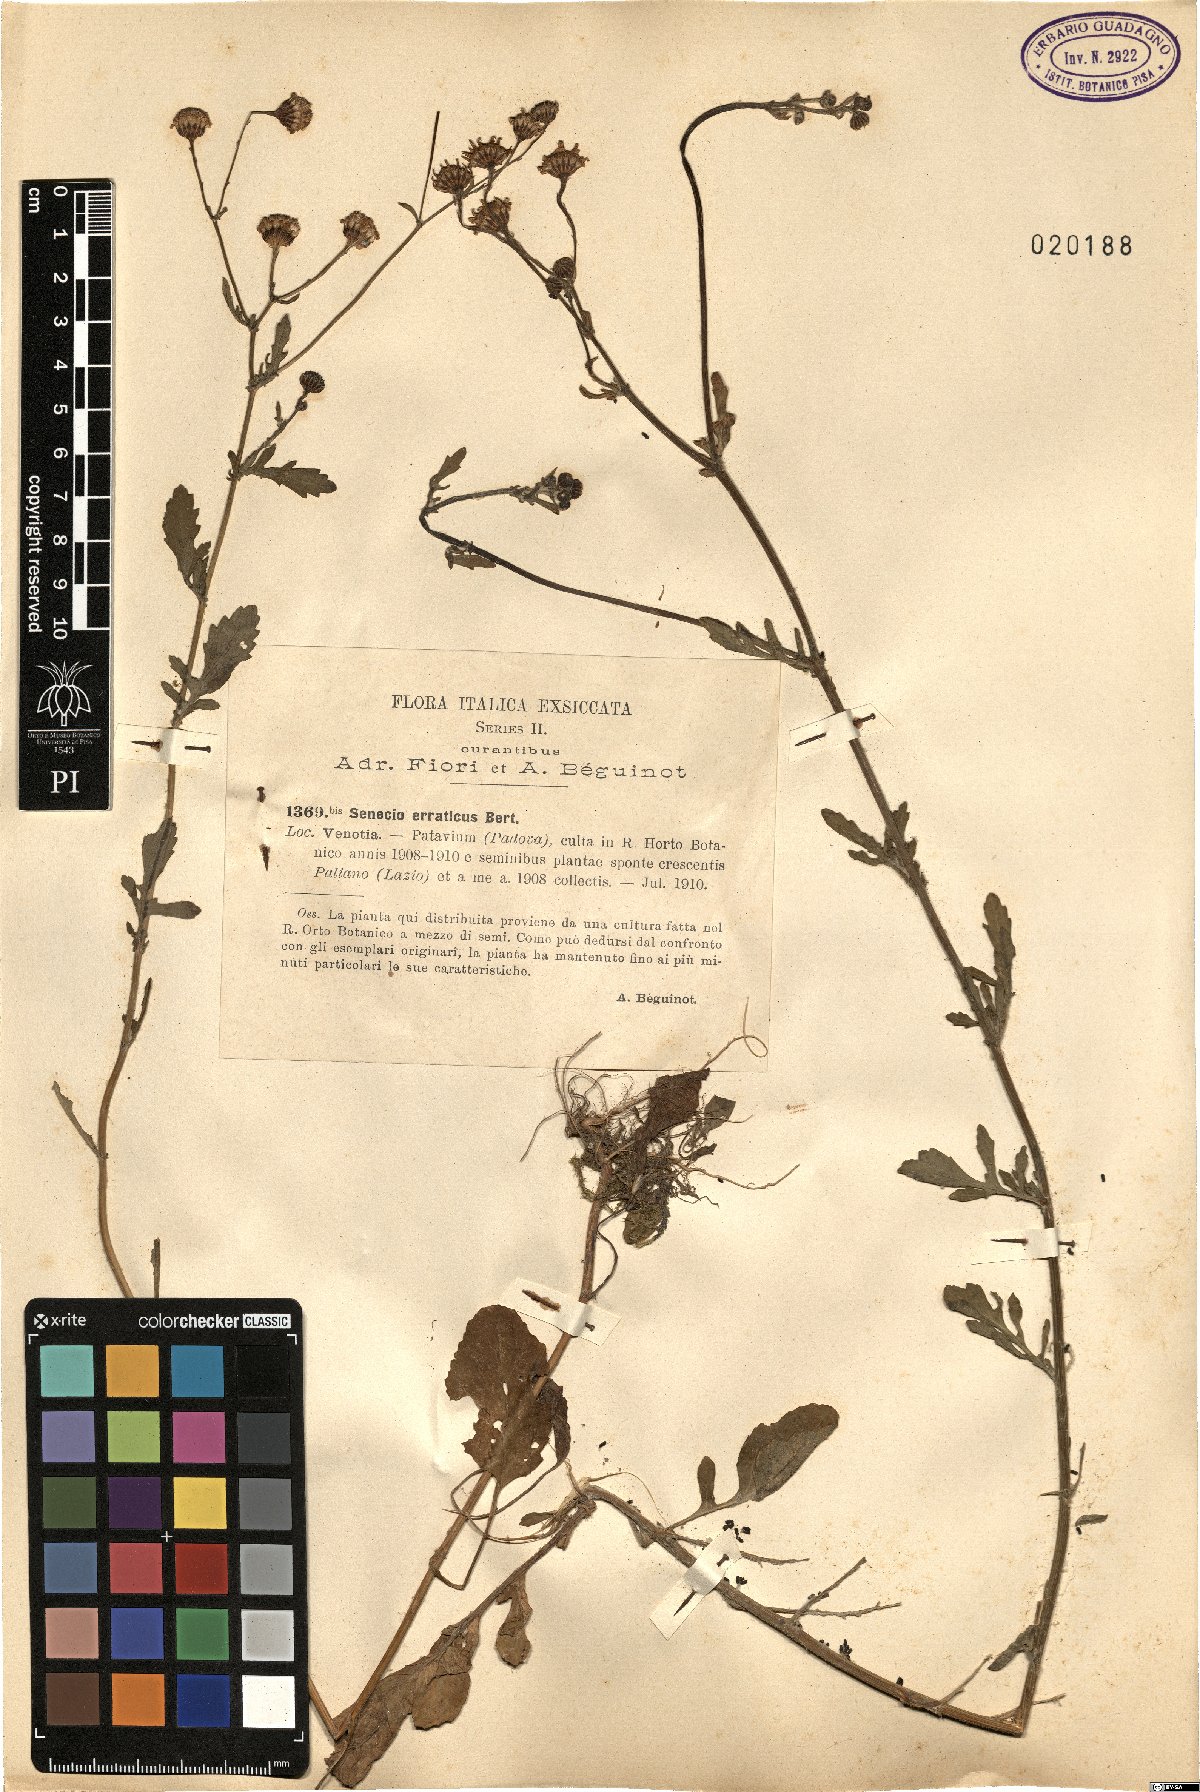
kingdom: Plantae
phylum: Tracheophyta
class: Magnoliopsida
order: Asterales
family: Asteraceae
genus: Jacobaea
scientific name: Jacobaea erratica
